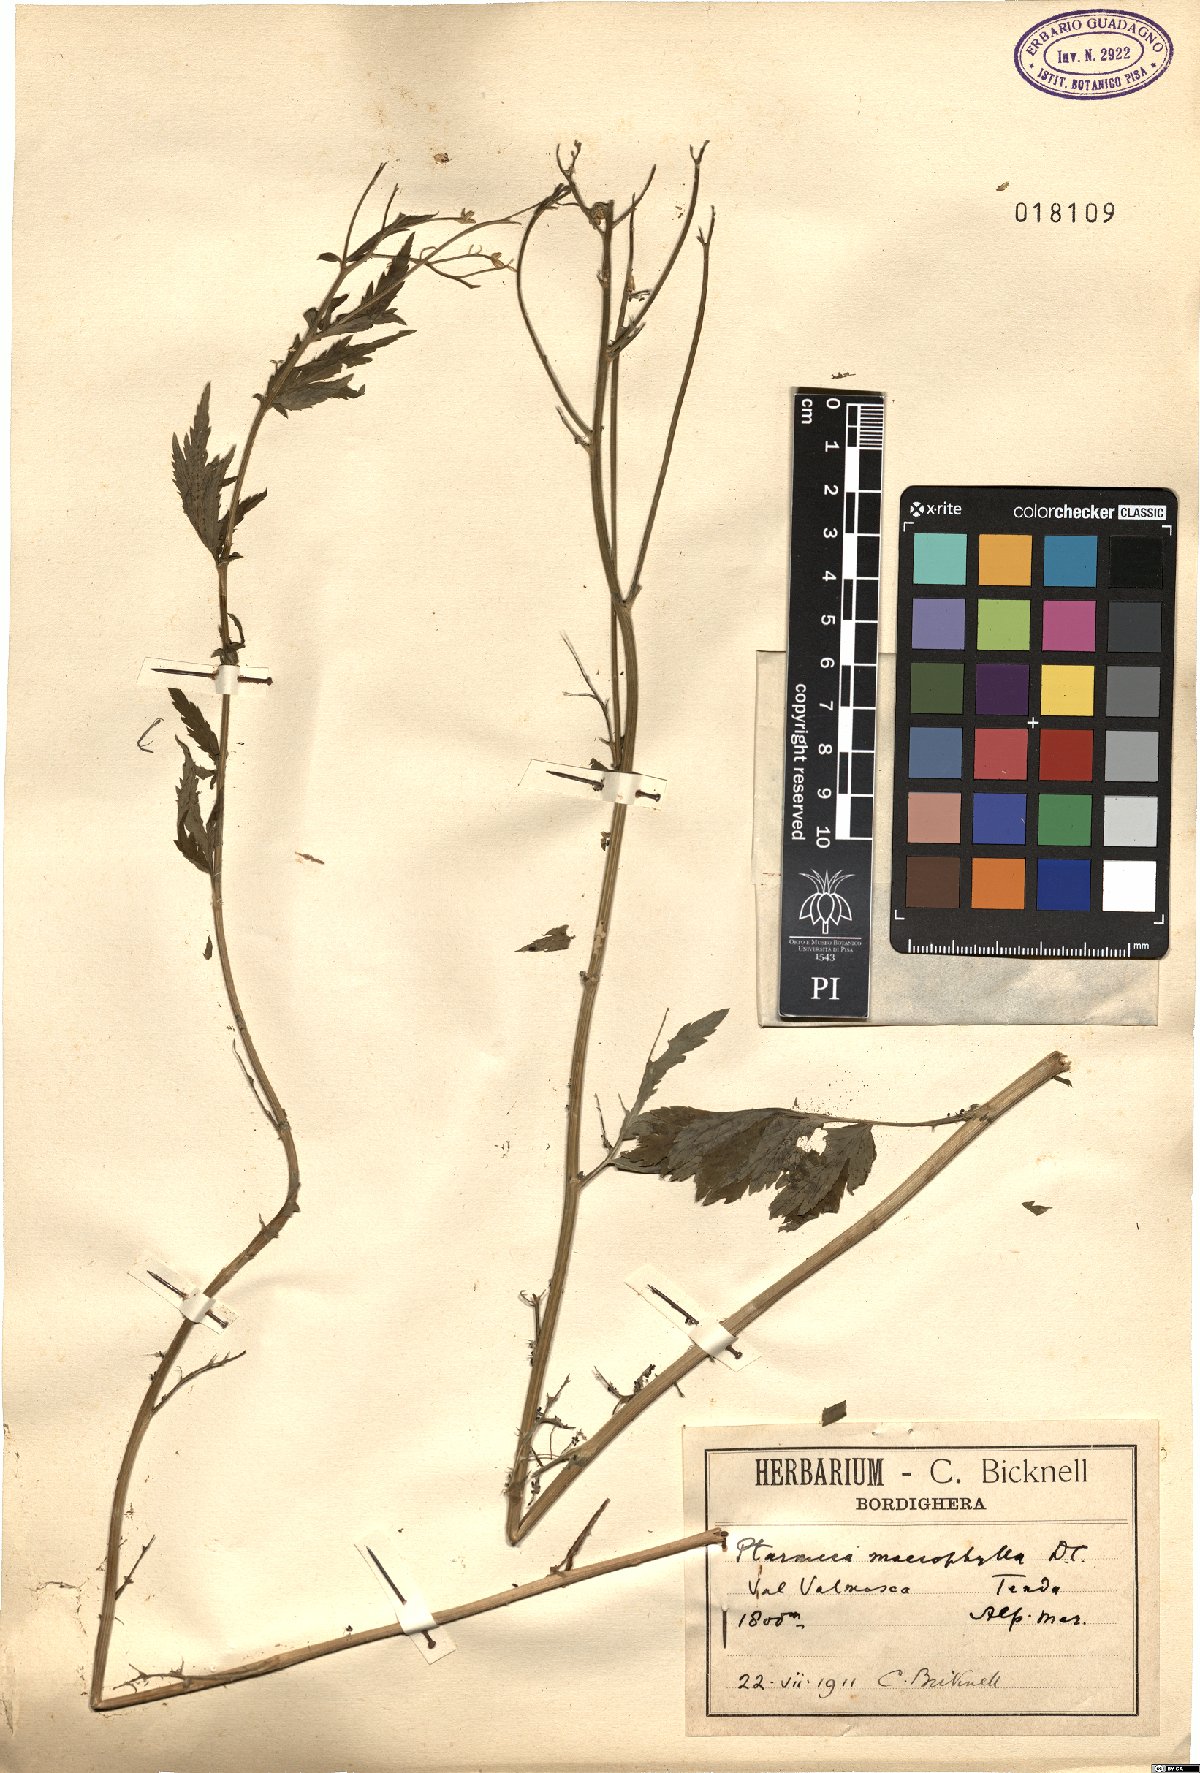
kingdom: Plantae
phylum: Tracheophyta
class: Magnoliopsida
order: Asterales
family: Asteraceae
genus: Achillea
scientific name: Achillea macrophylla
